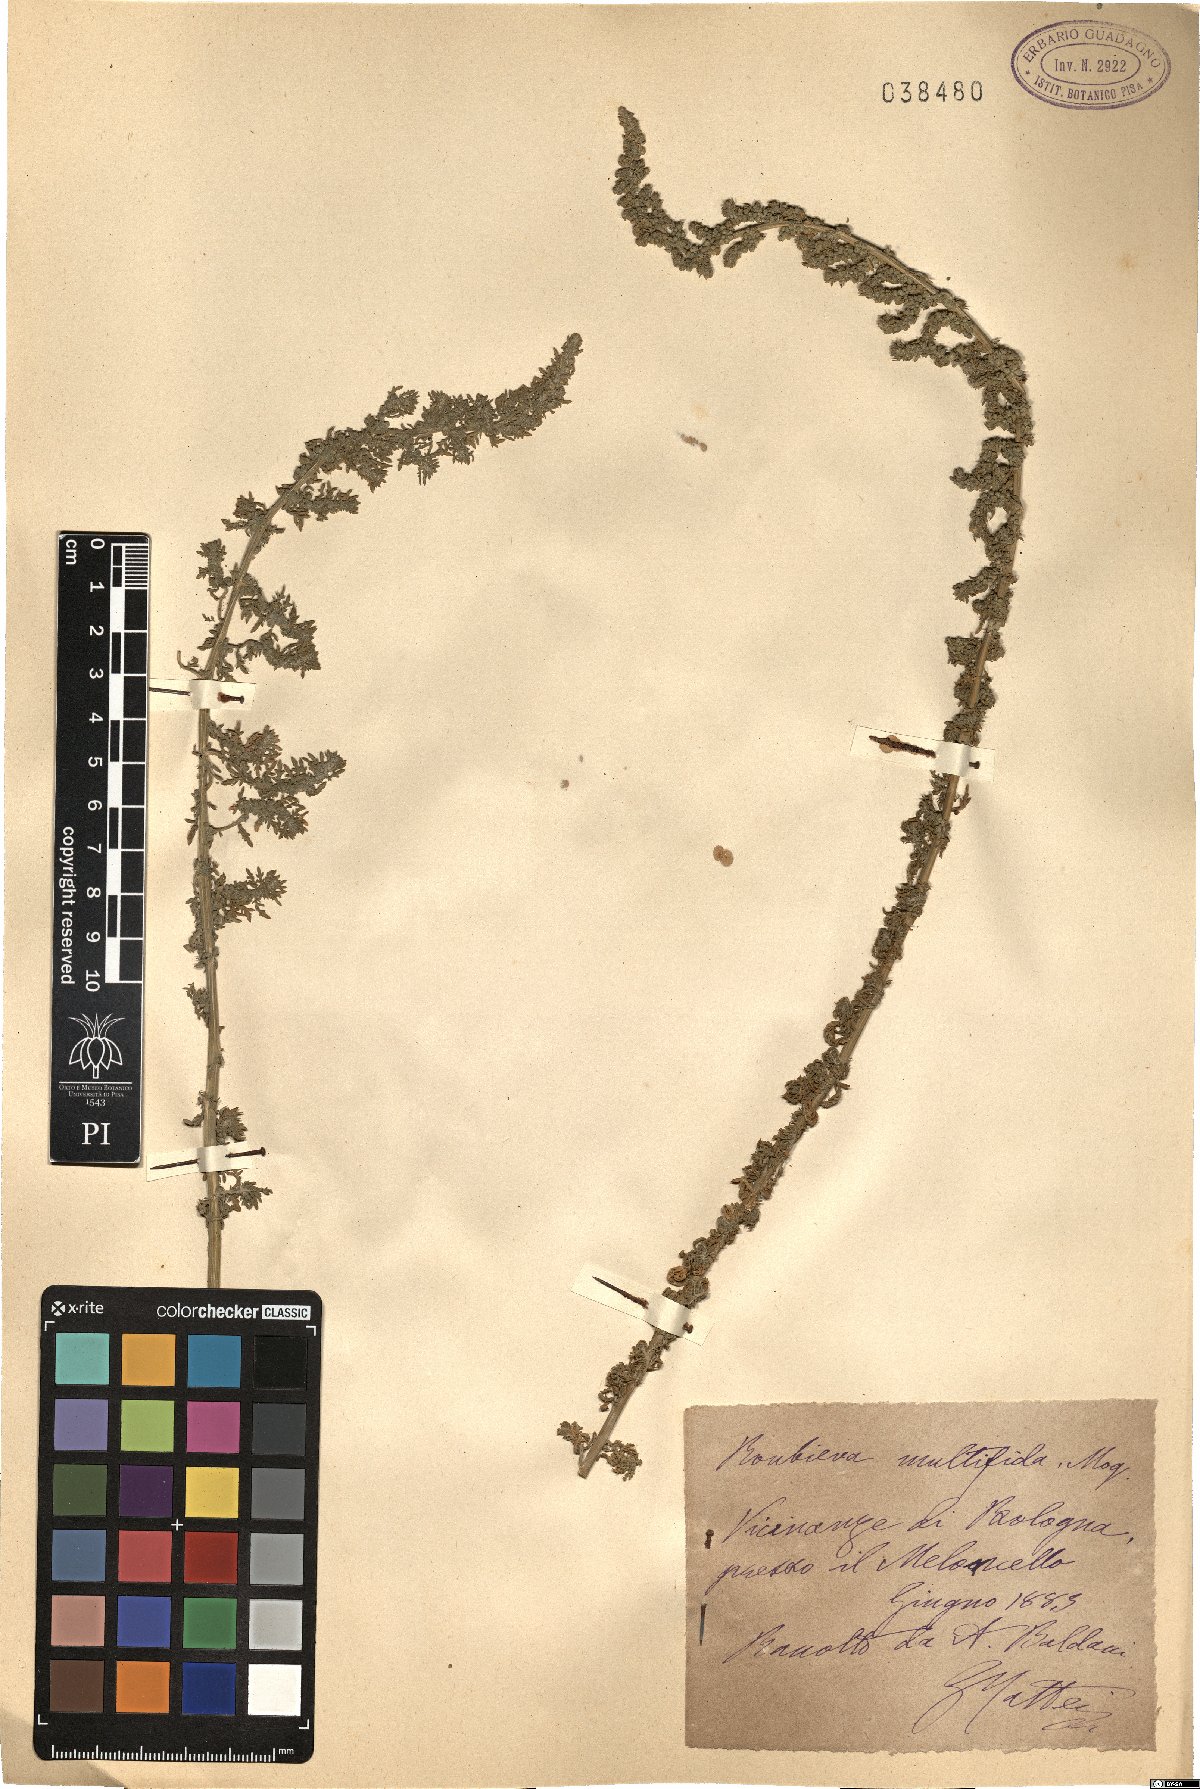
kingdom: Plantae
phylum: Tracheophyta
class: Magnoliopsida
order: Caryophyllales
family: Amaranthaceae
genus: Dysphania
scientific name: Dysphania multifida
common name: Cutleaf goosefoot
